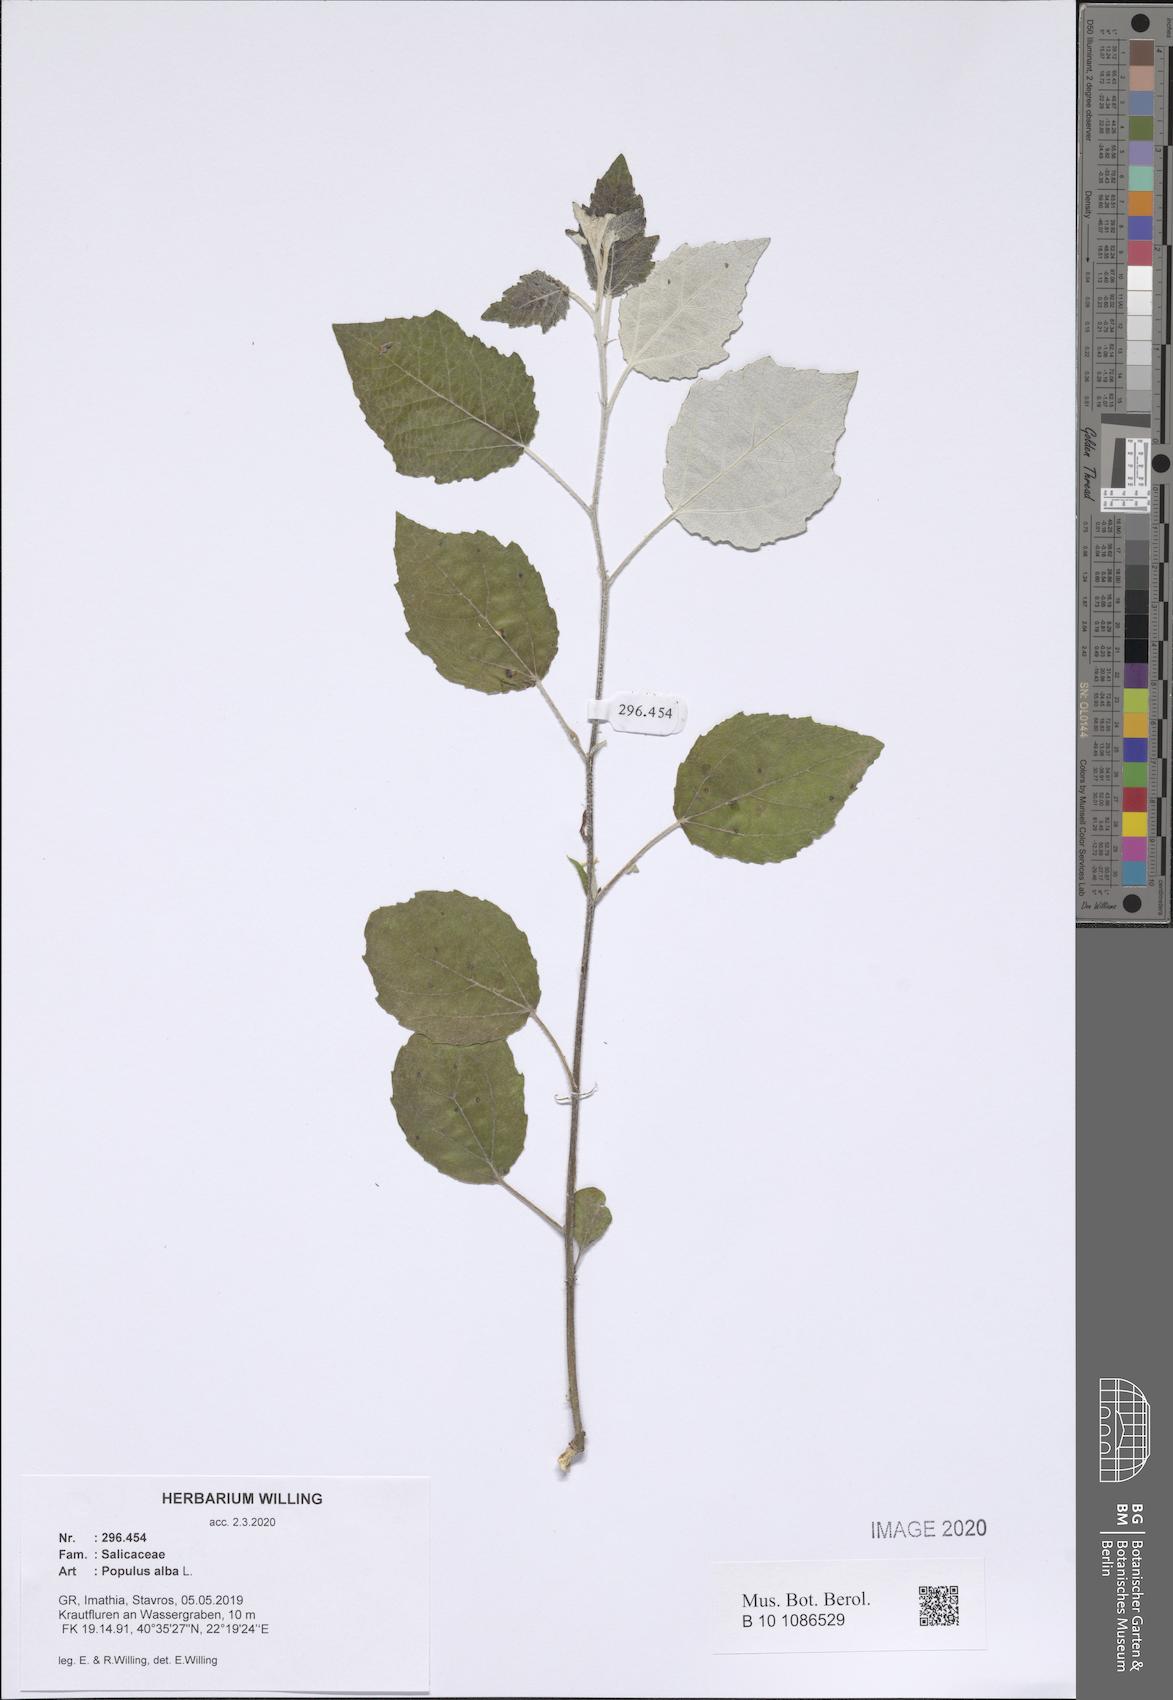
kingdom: Plantae
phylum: Tracheophyta
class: Magnoliopsida
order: Malpighiales
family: Salicaceae
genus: Populus
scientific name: Populus alba
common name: White poplar
